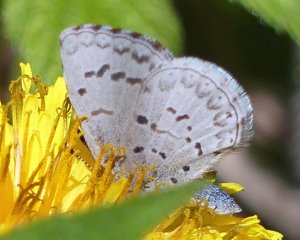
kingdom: Animalia
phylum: Arthropoda
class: Insecta
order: Lepidoptera
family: Lycaenidae
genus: Celastrina
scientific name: Celastrina
